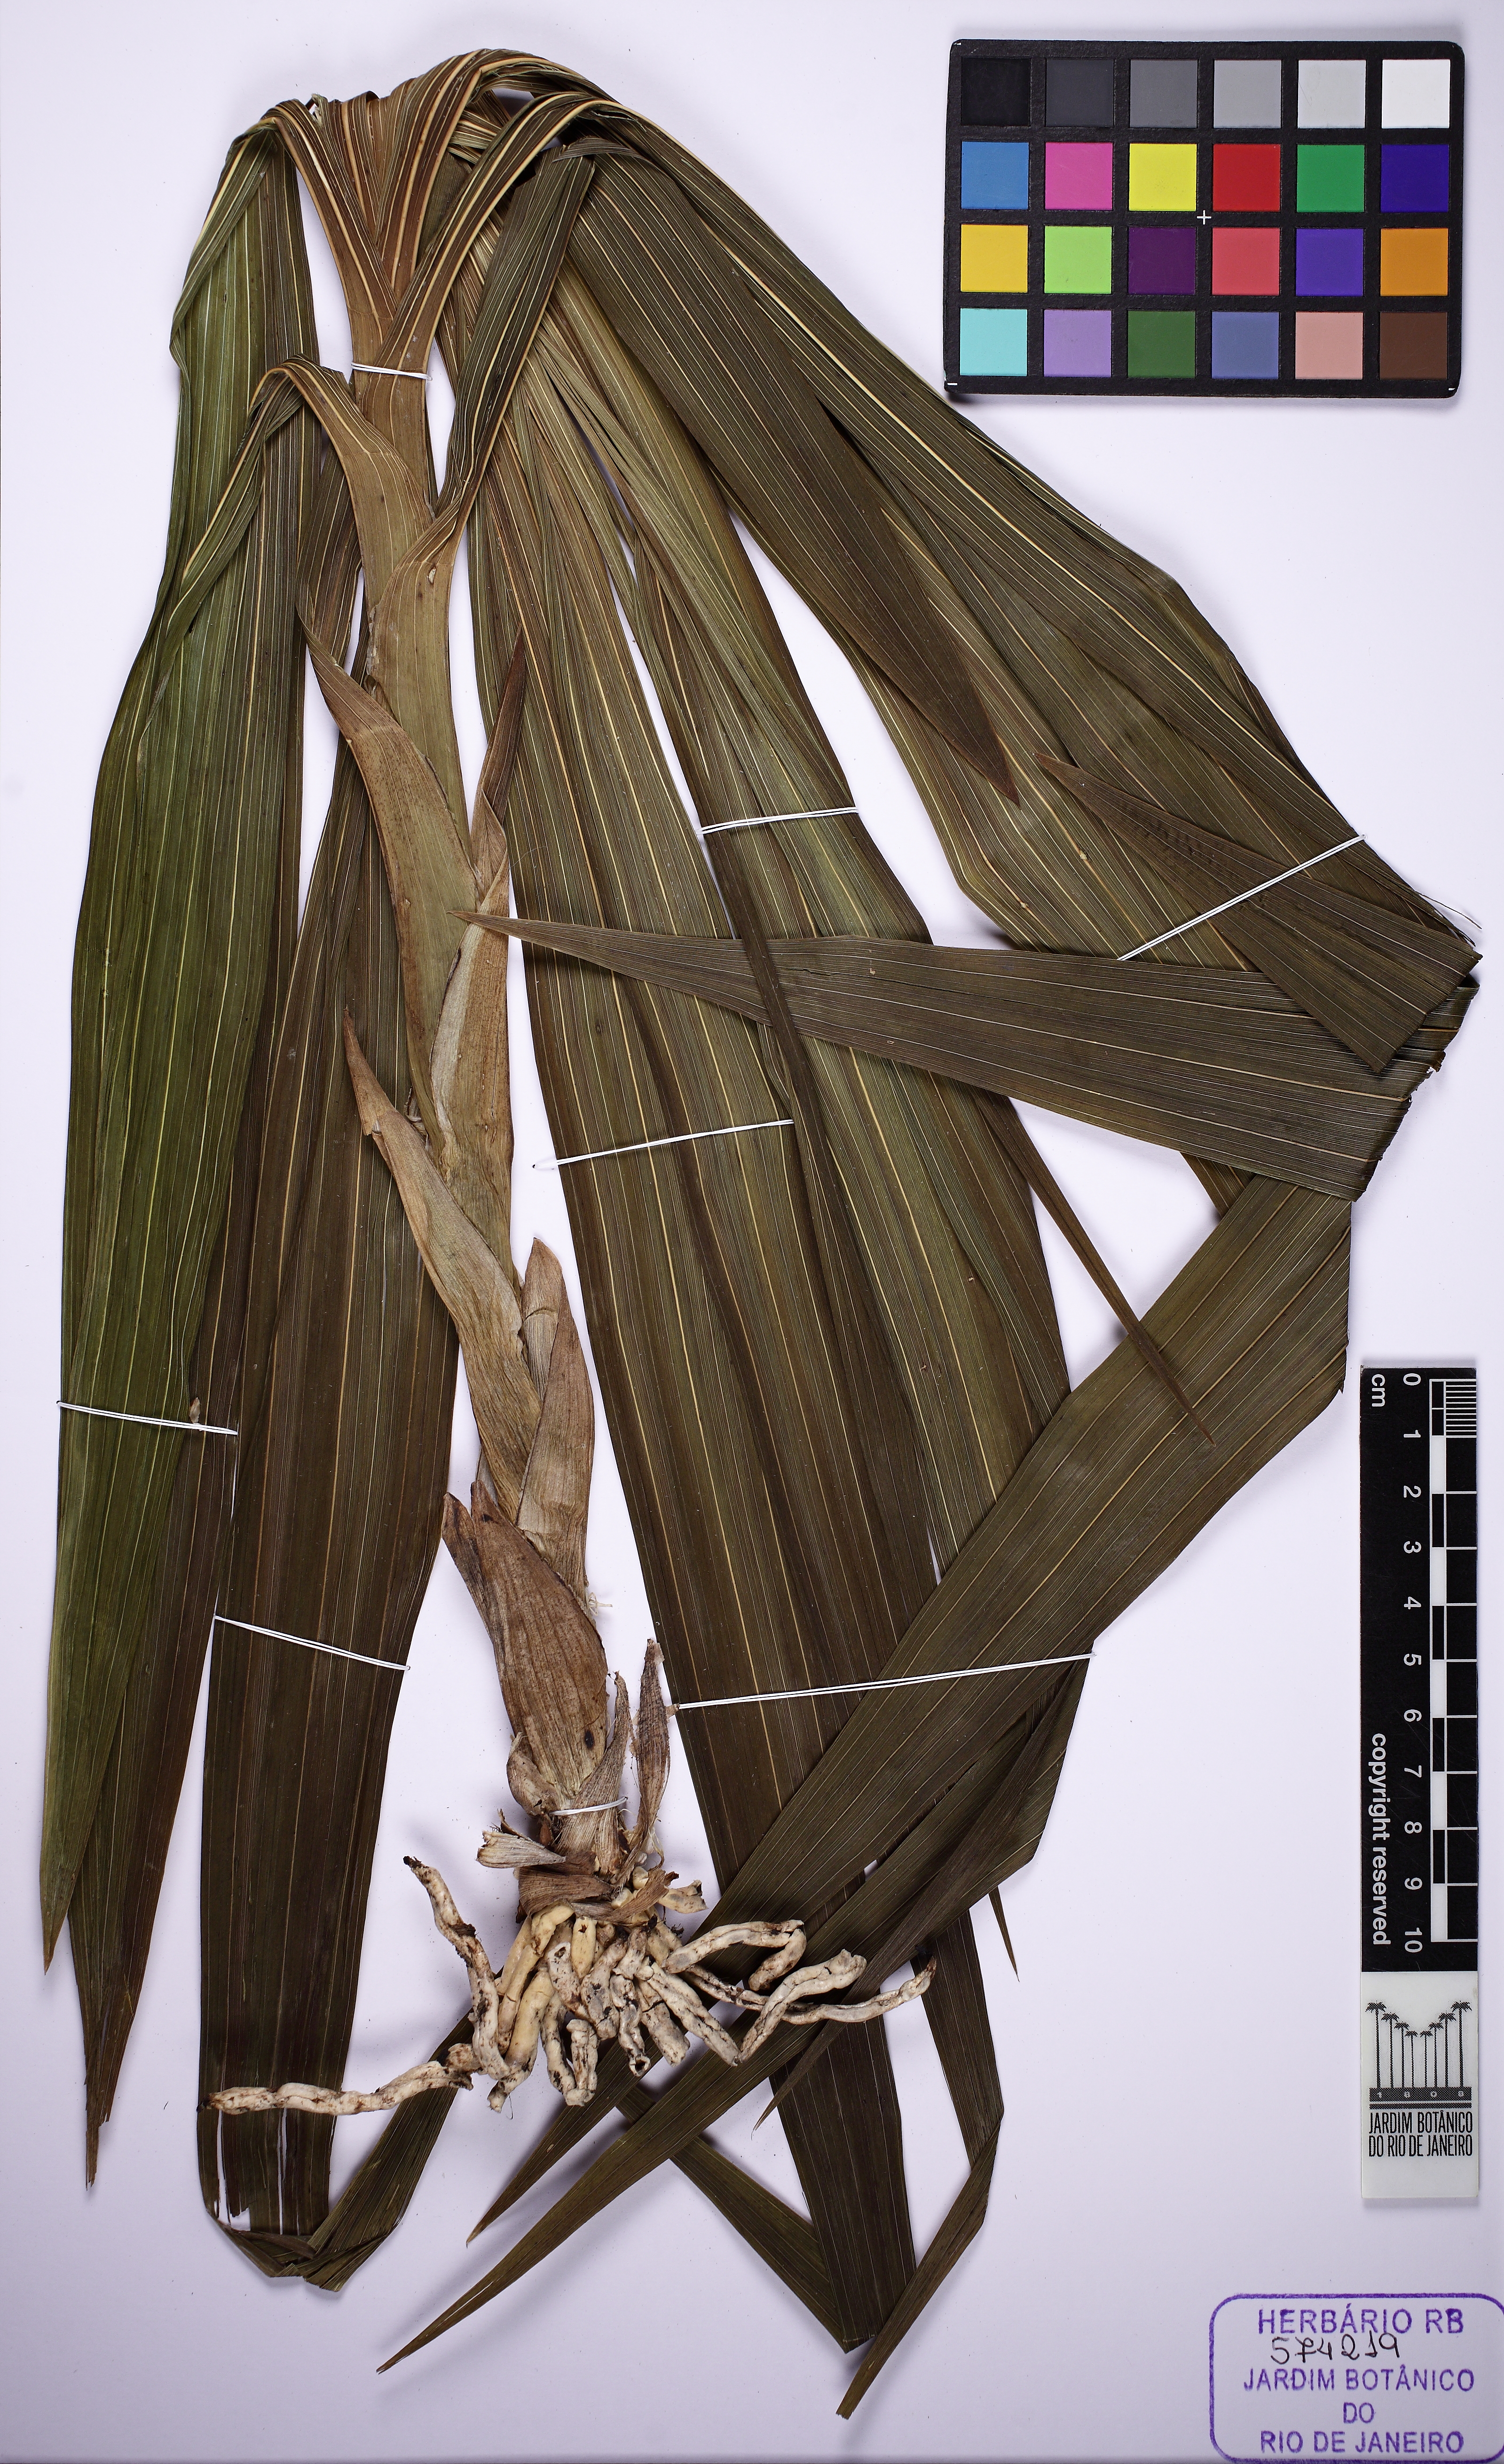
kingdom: Plantae
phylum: Tracheophyta
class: Liliopsida
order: Asparagales
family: Orchidaceae
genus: Cyrtopodium
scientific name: Cyrtopodium glutiniferum
